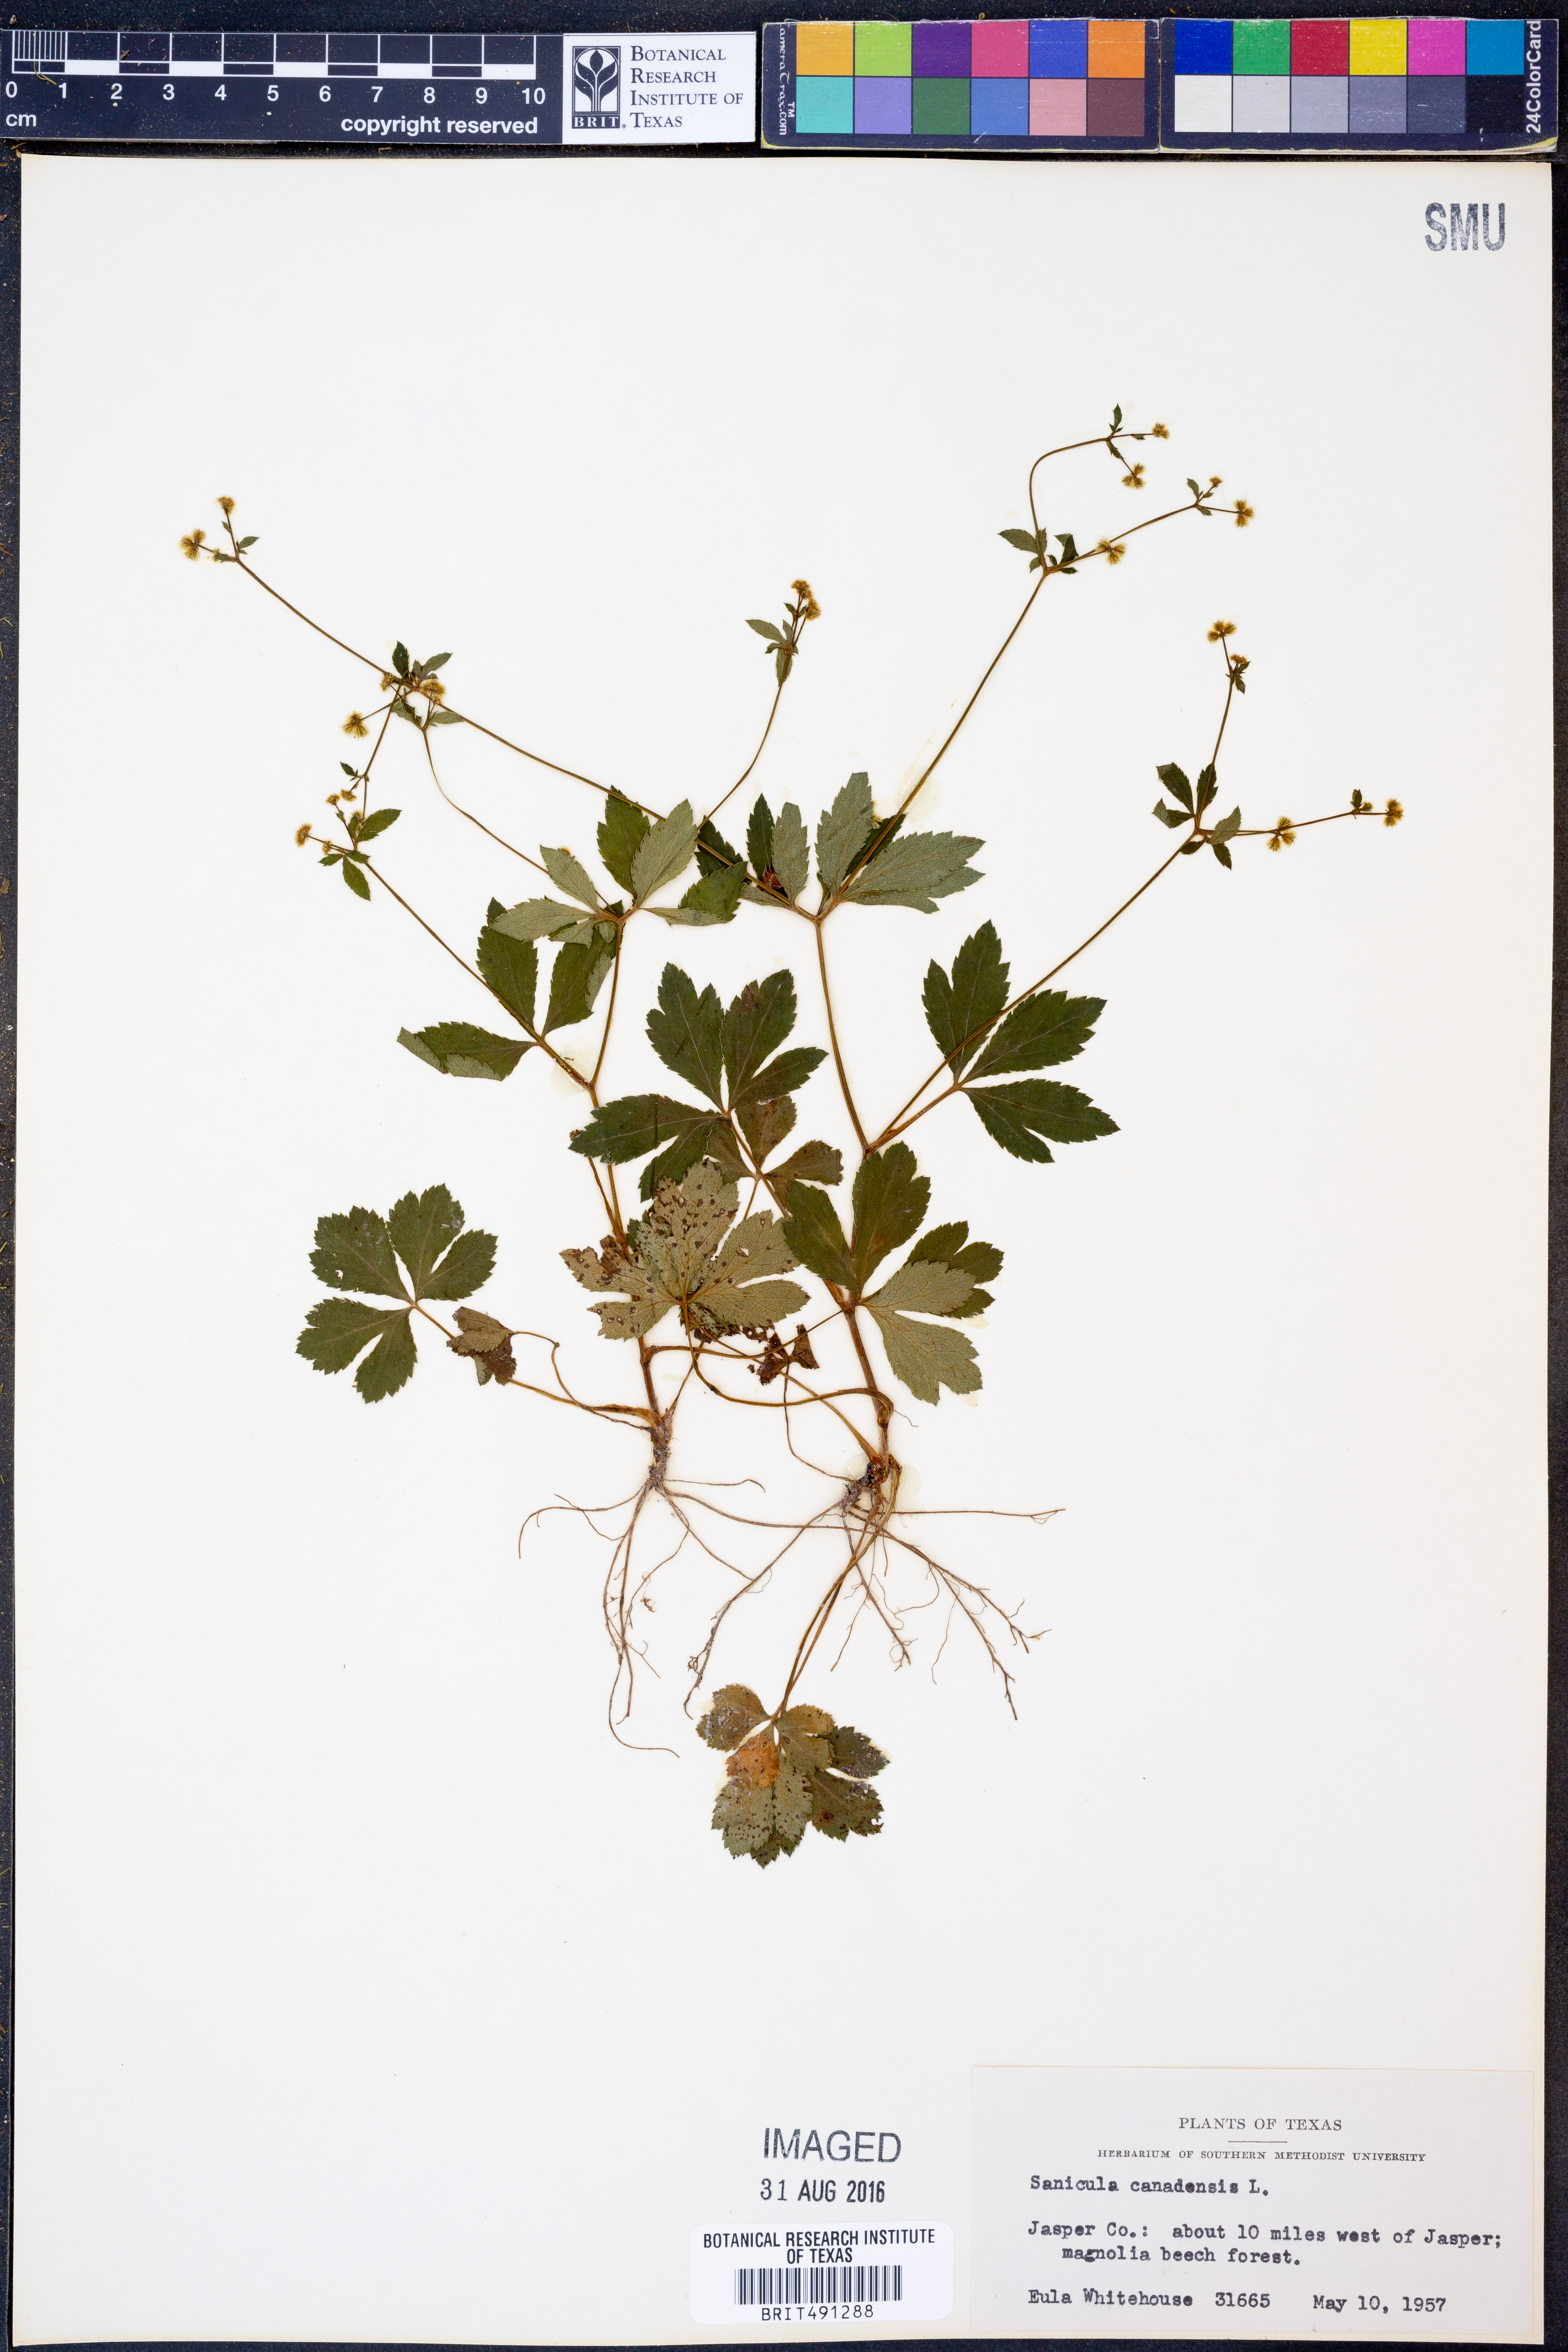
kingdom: Plantae
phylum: Tracheophyta
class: Magnoliopsida
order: Apiales
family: Apiaceae
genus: Sanicula
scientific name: Sanicula canadensis
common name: Canada sanicle
